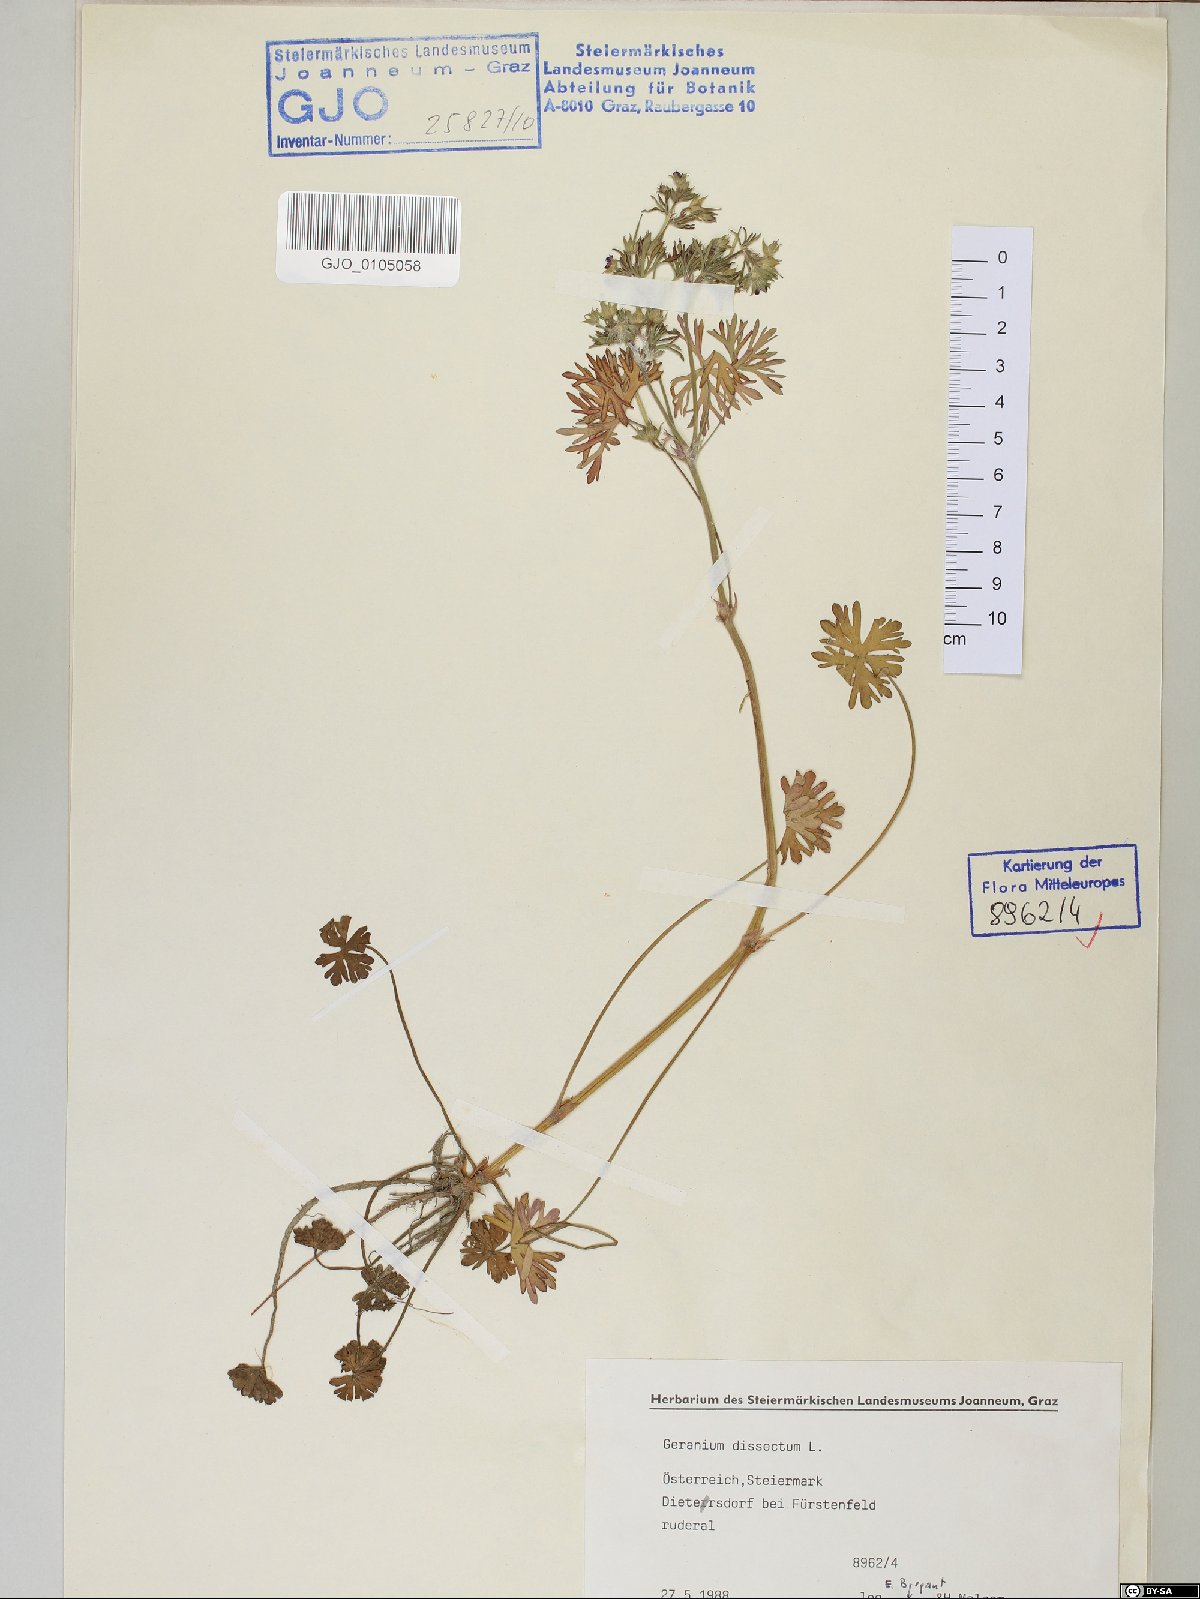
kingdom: Plantae
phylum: Tracheophyta
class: Magnoliopsida
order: Geraniales
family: Geraniaceae
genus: Geranium
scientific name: Geranium dissectum
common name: Cut-leaved crane's-bill
